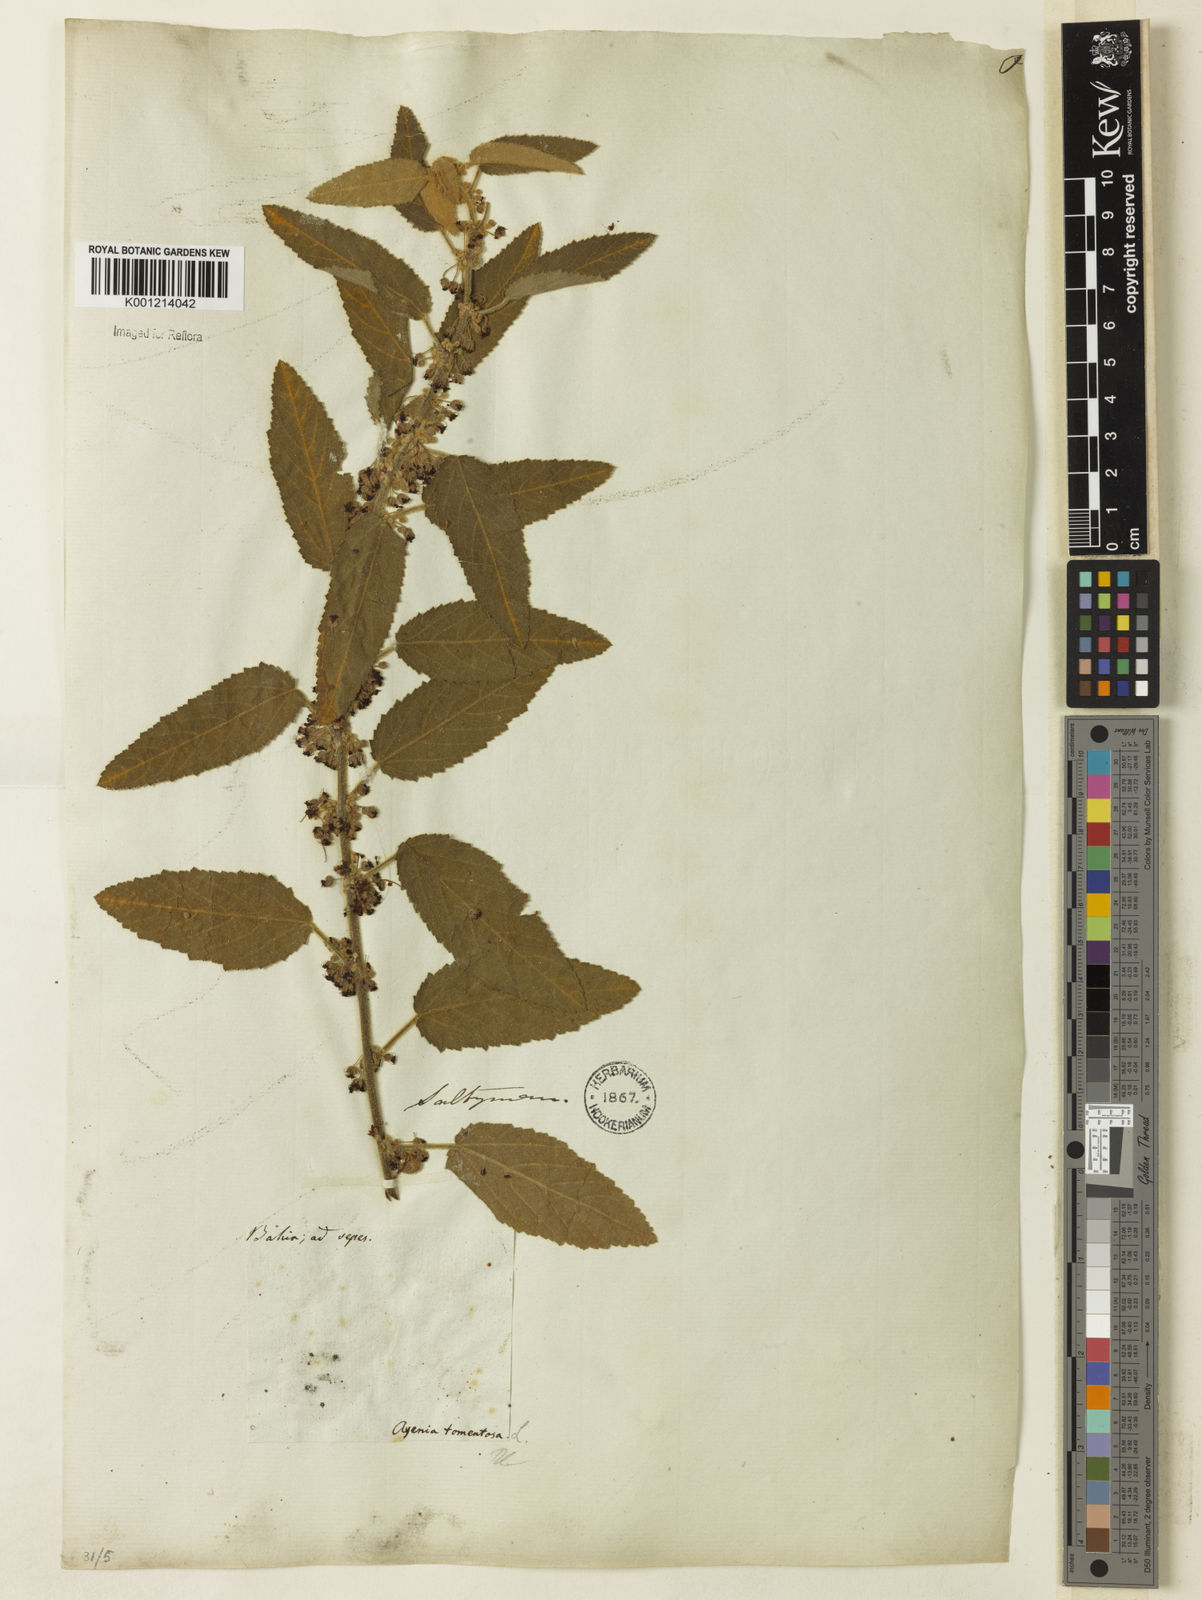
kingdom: Plantae
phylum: Tracheophyta
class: Magnoliopsida
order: Malvales
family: Malvaceae
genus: Ayenia
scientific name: Ayenia tomentosa
